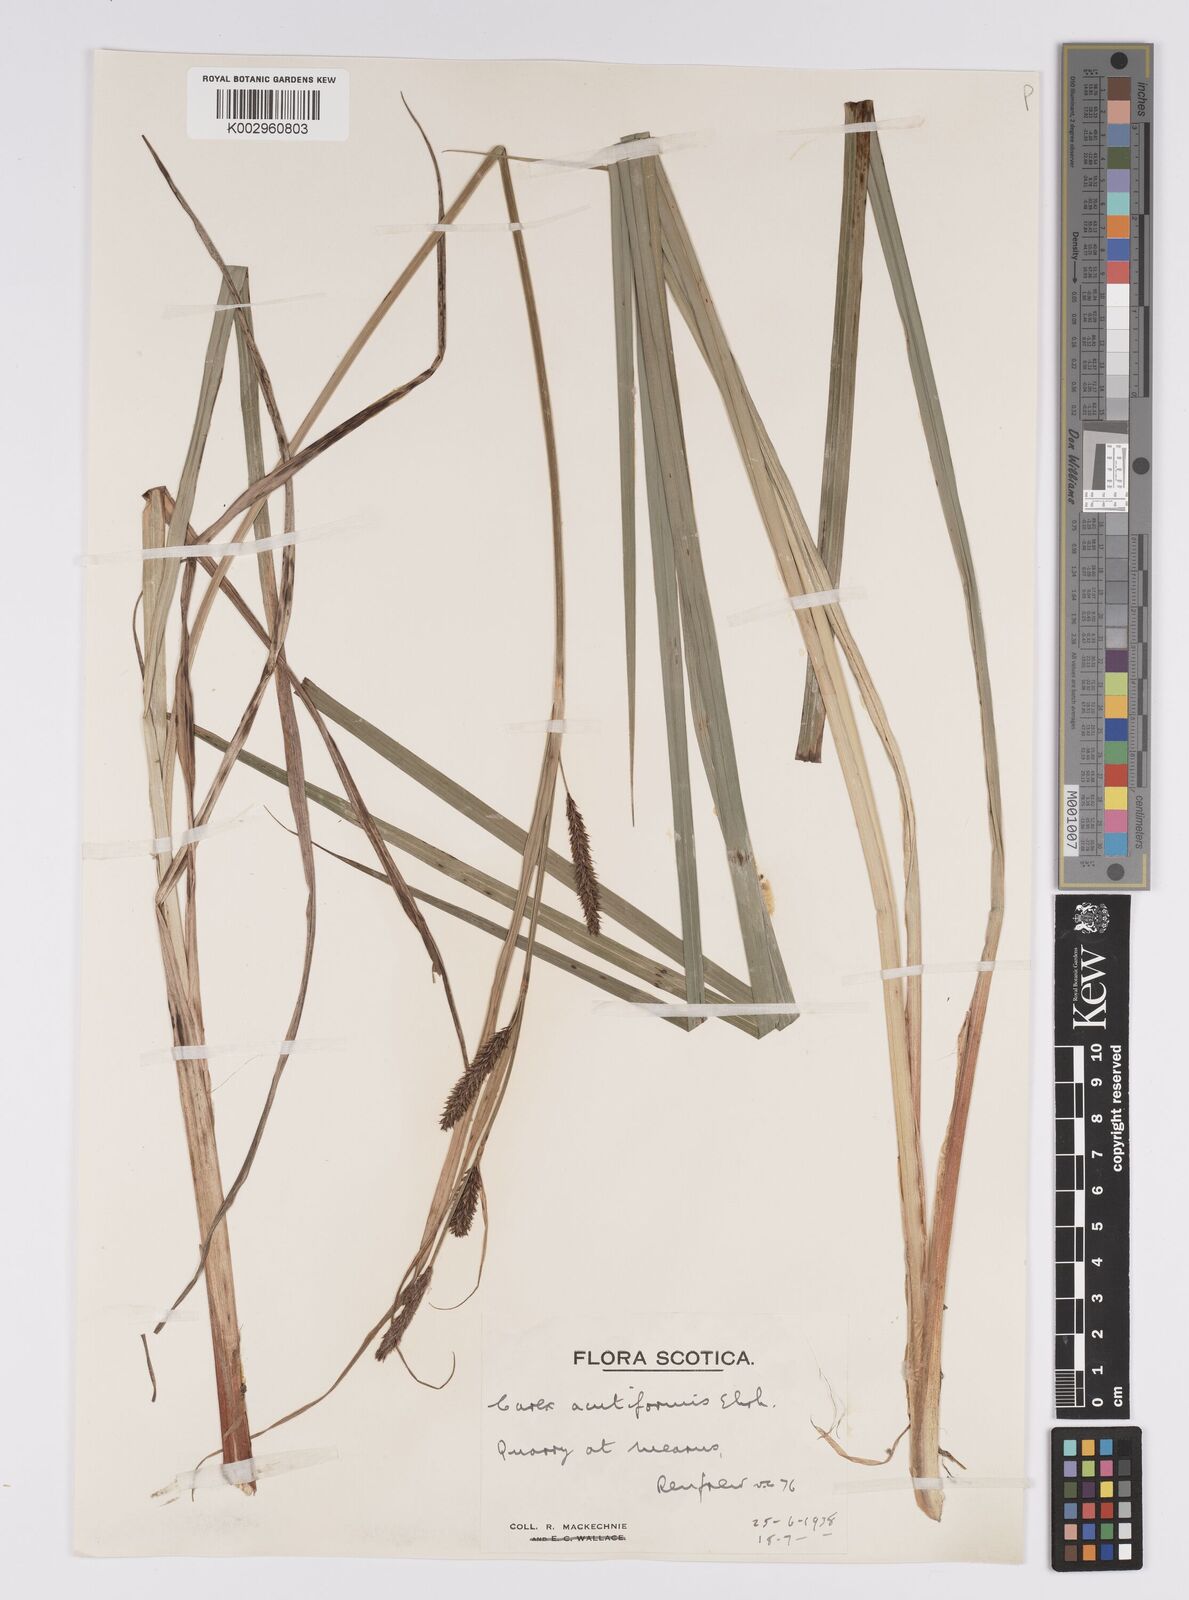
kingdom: Plantae
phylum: Tracheophyta
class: Liliopsida
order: Poales
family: Cyperaceae
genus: Carex
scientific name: Carex acutiformis
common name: Lesser pond-sedge
